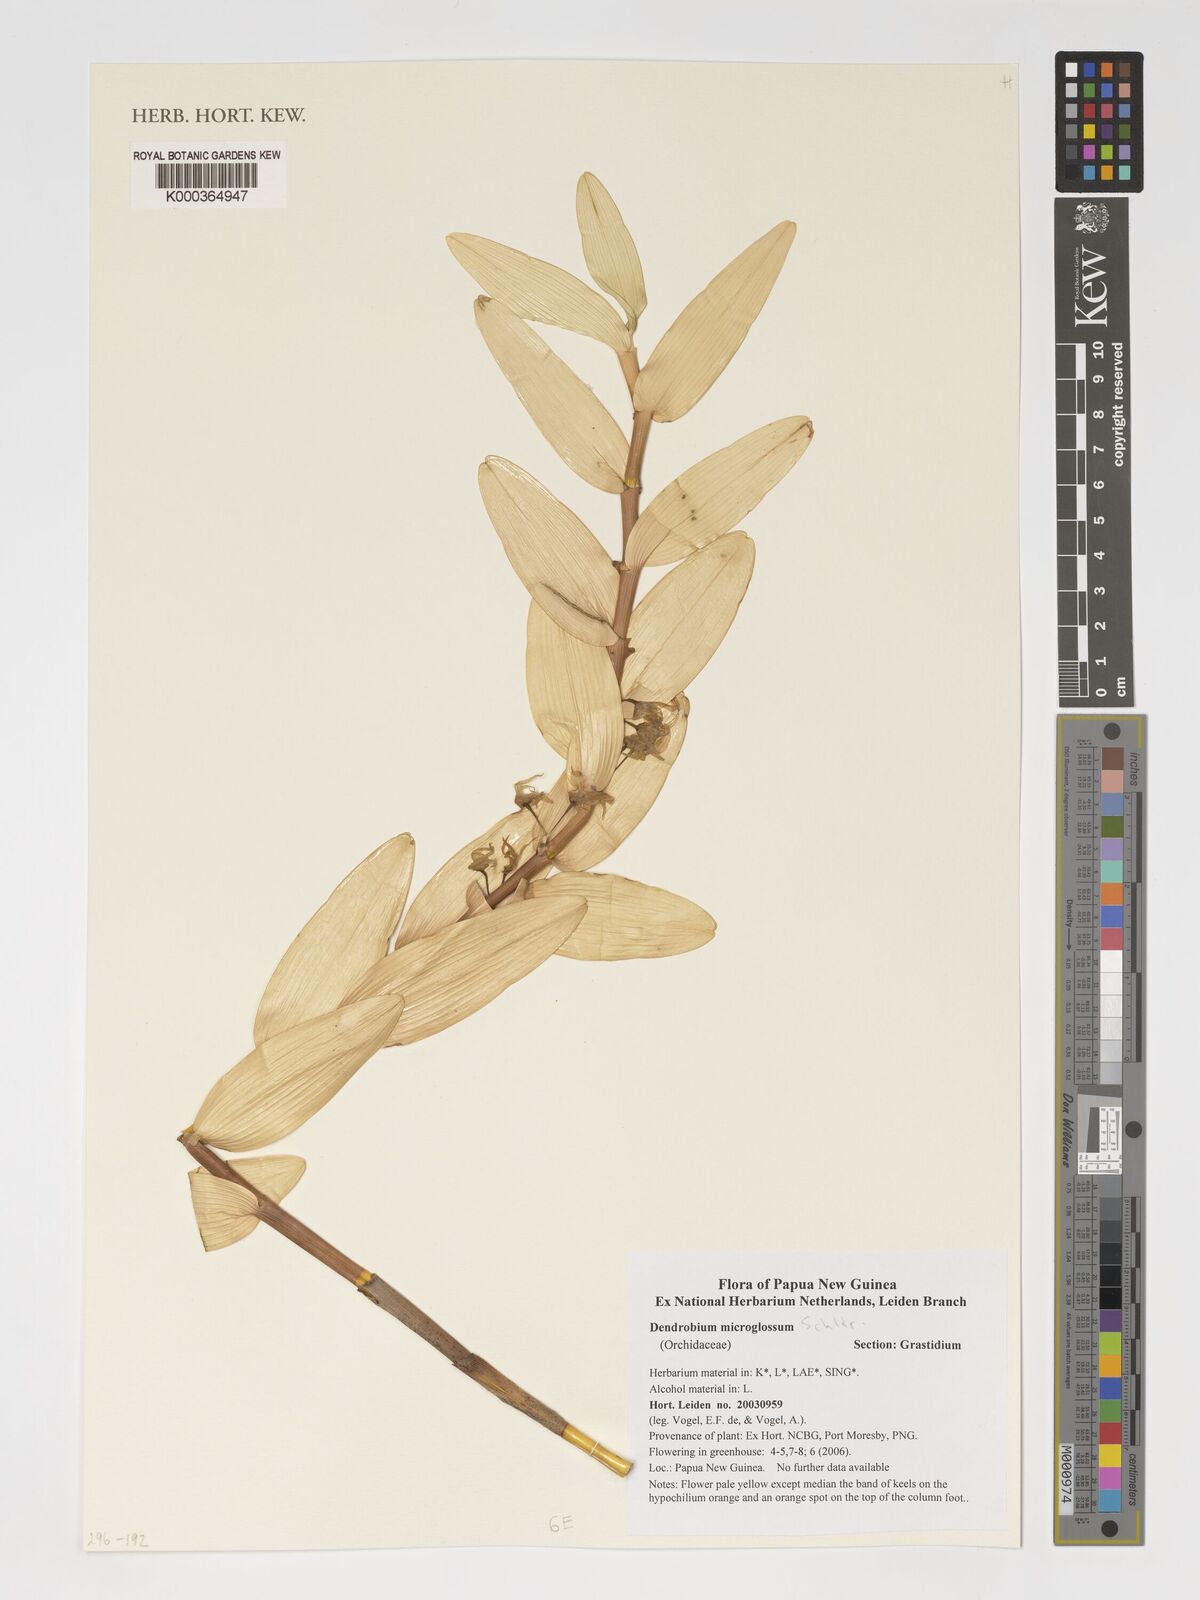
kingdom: Plantae
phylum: Tracheophyta
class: Liliopsida
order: Asparagales
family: Orchidaceae
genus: Dendrobium
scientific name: Dendrobium pruinosum
